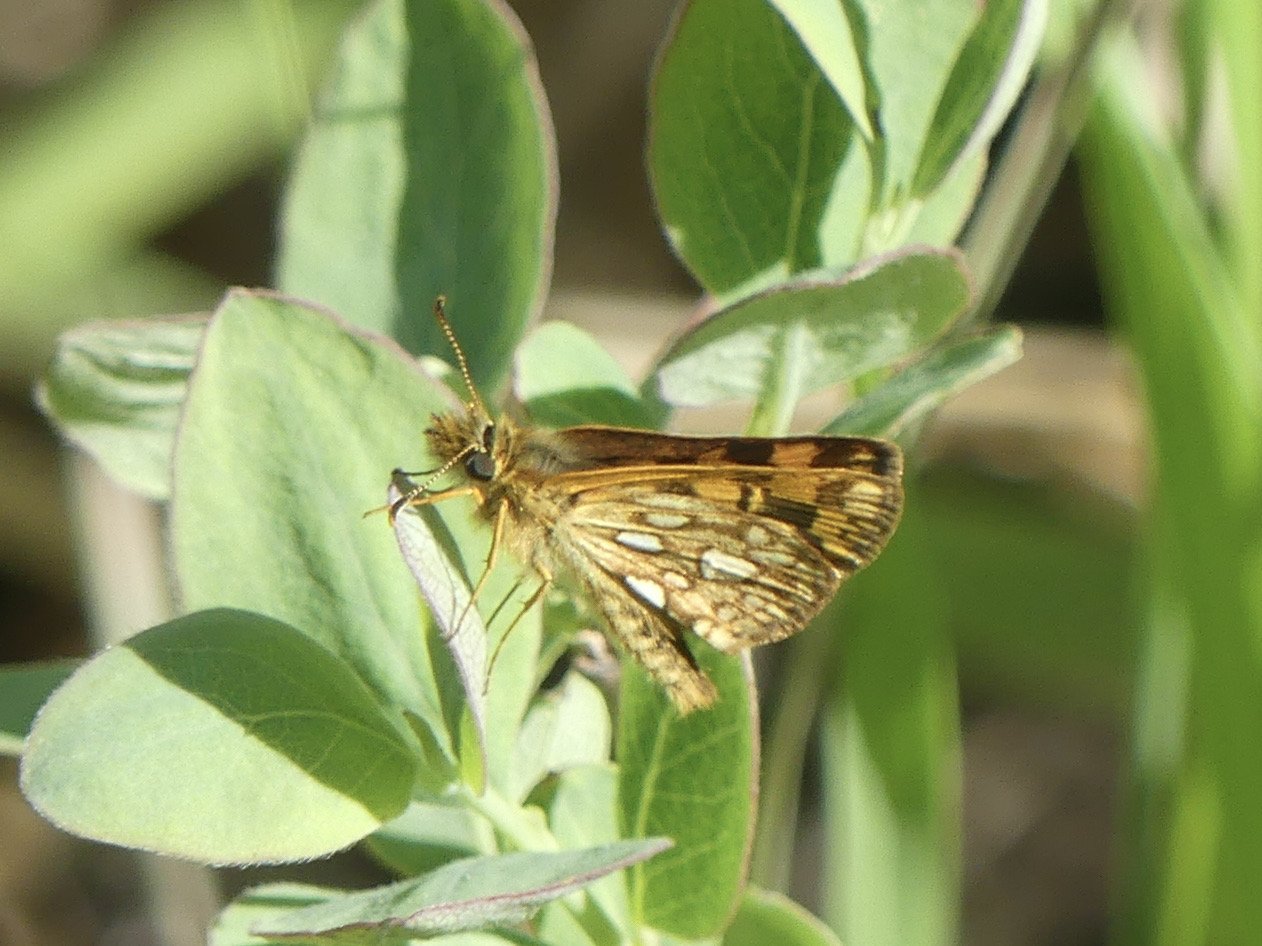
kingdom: Animalia
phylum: Arthropoda
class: Insecta
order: Lepidoptera
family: Hesperiidae
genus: Carterocephalus
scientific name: Carterocephalus palaemon
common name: Chequered Skipper
